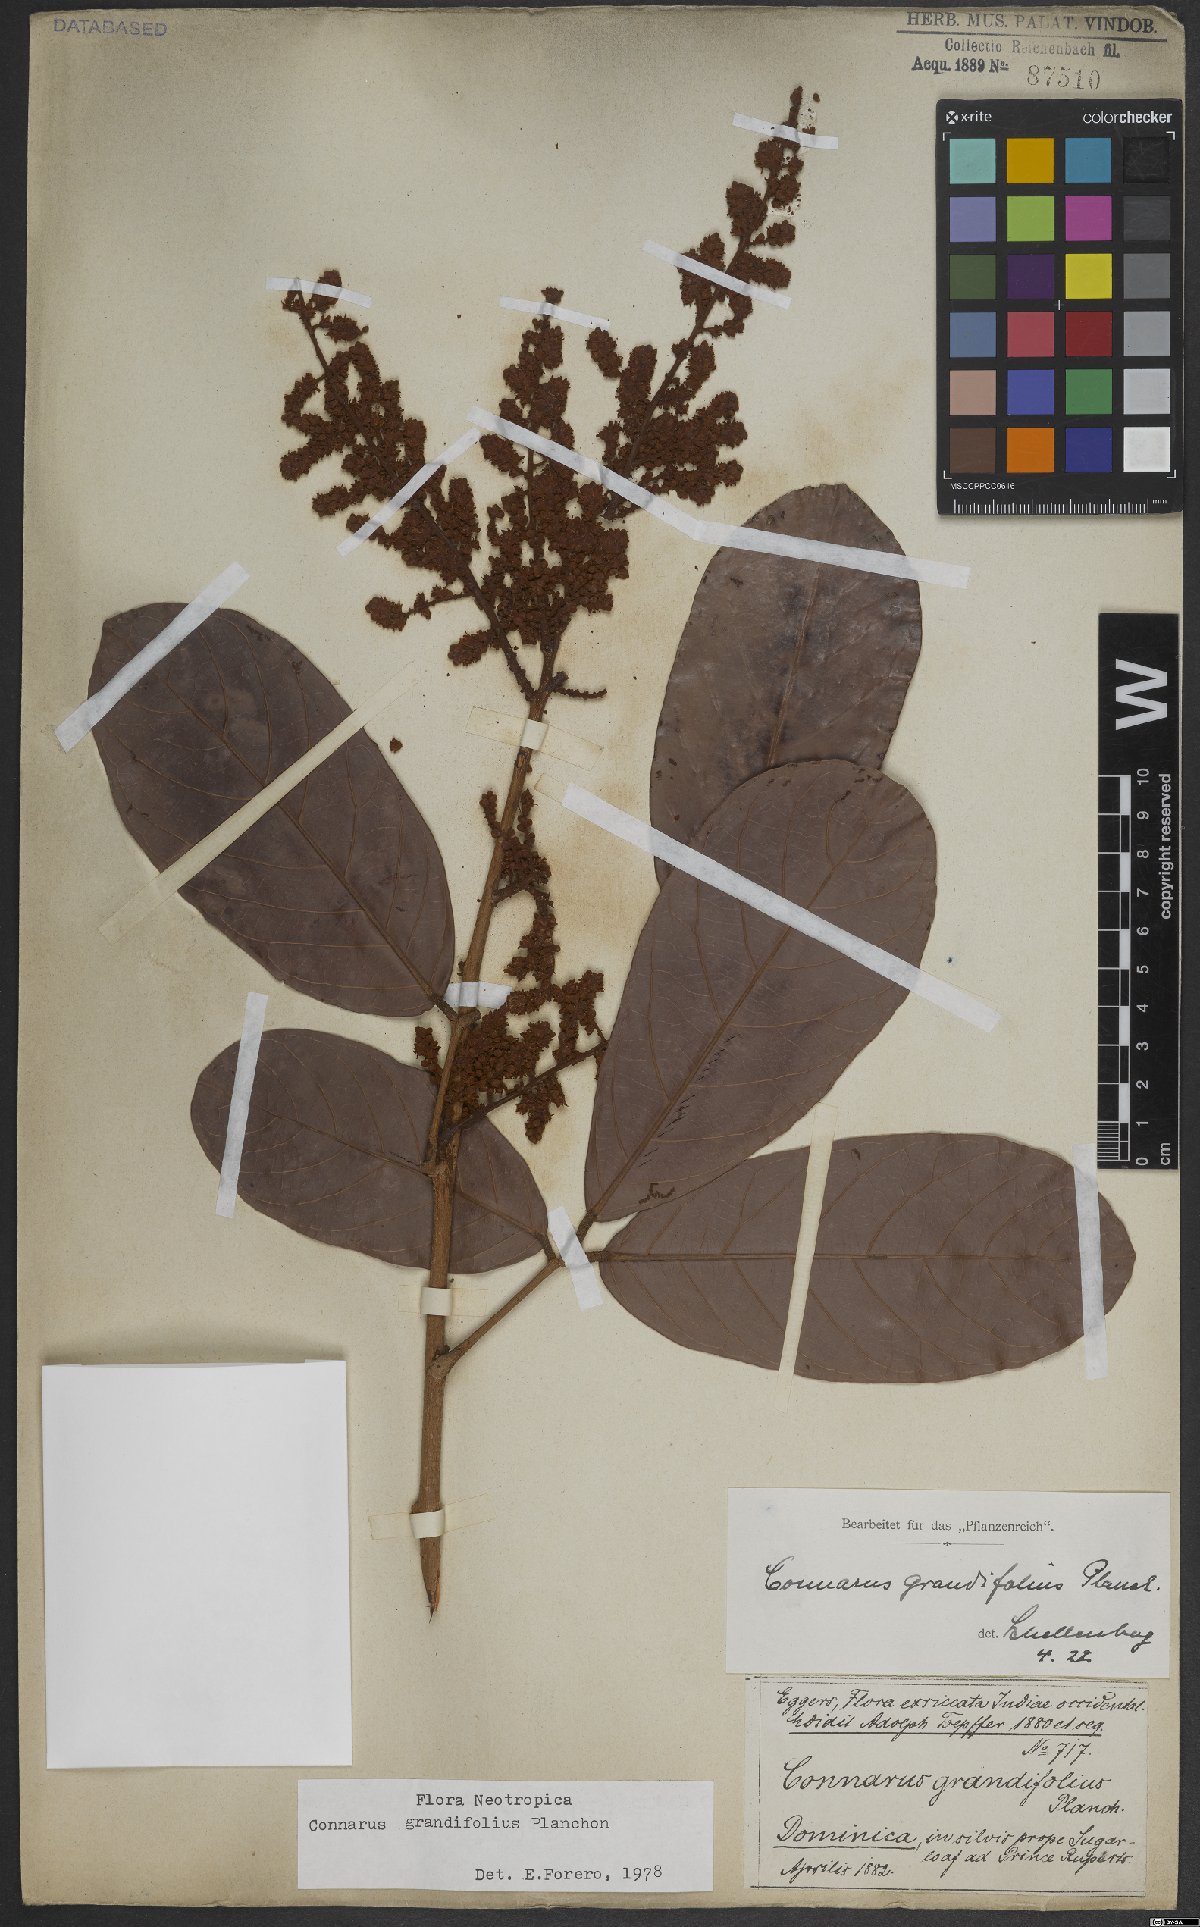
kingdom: Plantae
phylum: Tracheophyta
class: Magnoliopsida
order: Oxalidales
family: Connaraceae
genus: Connarus
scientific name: Connarus grandifolius
